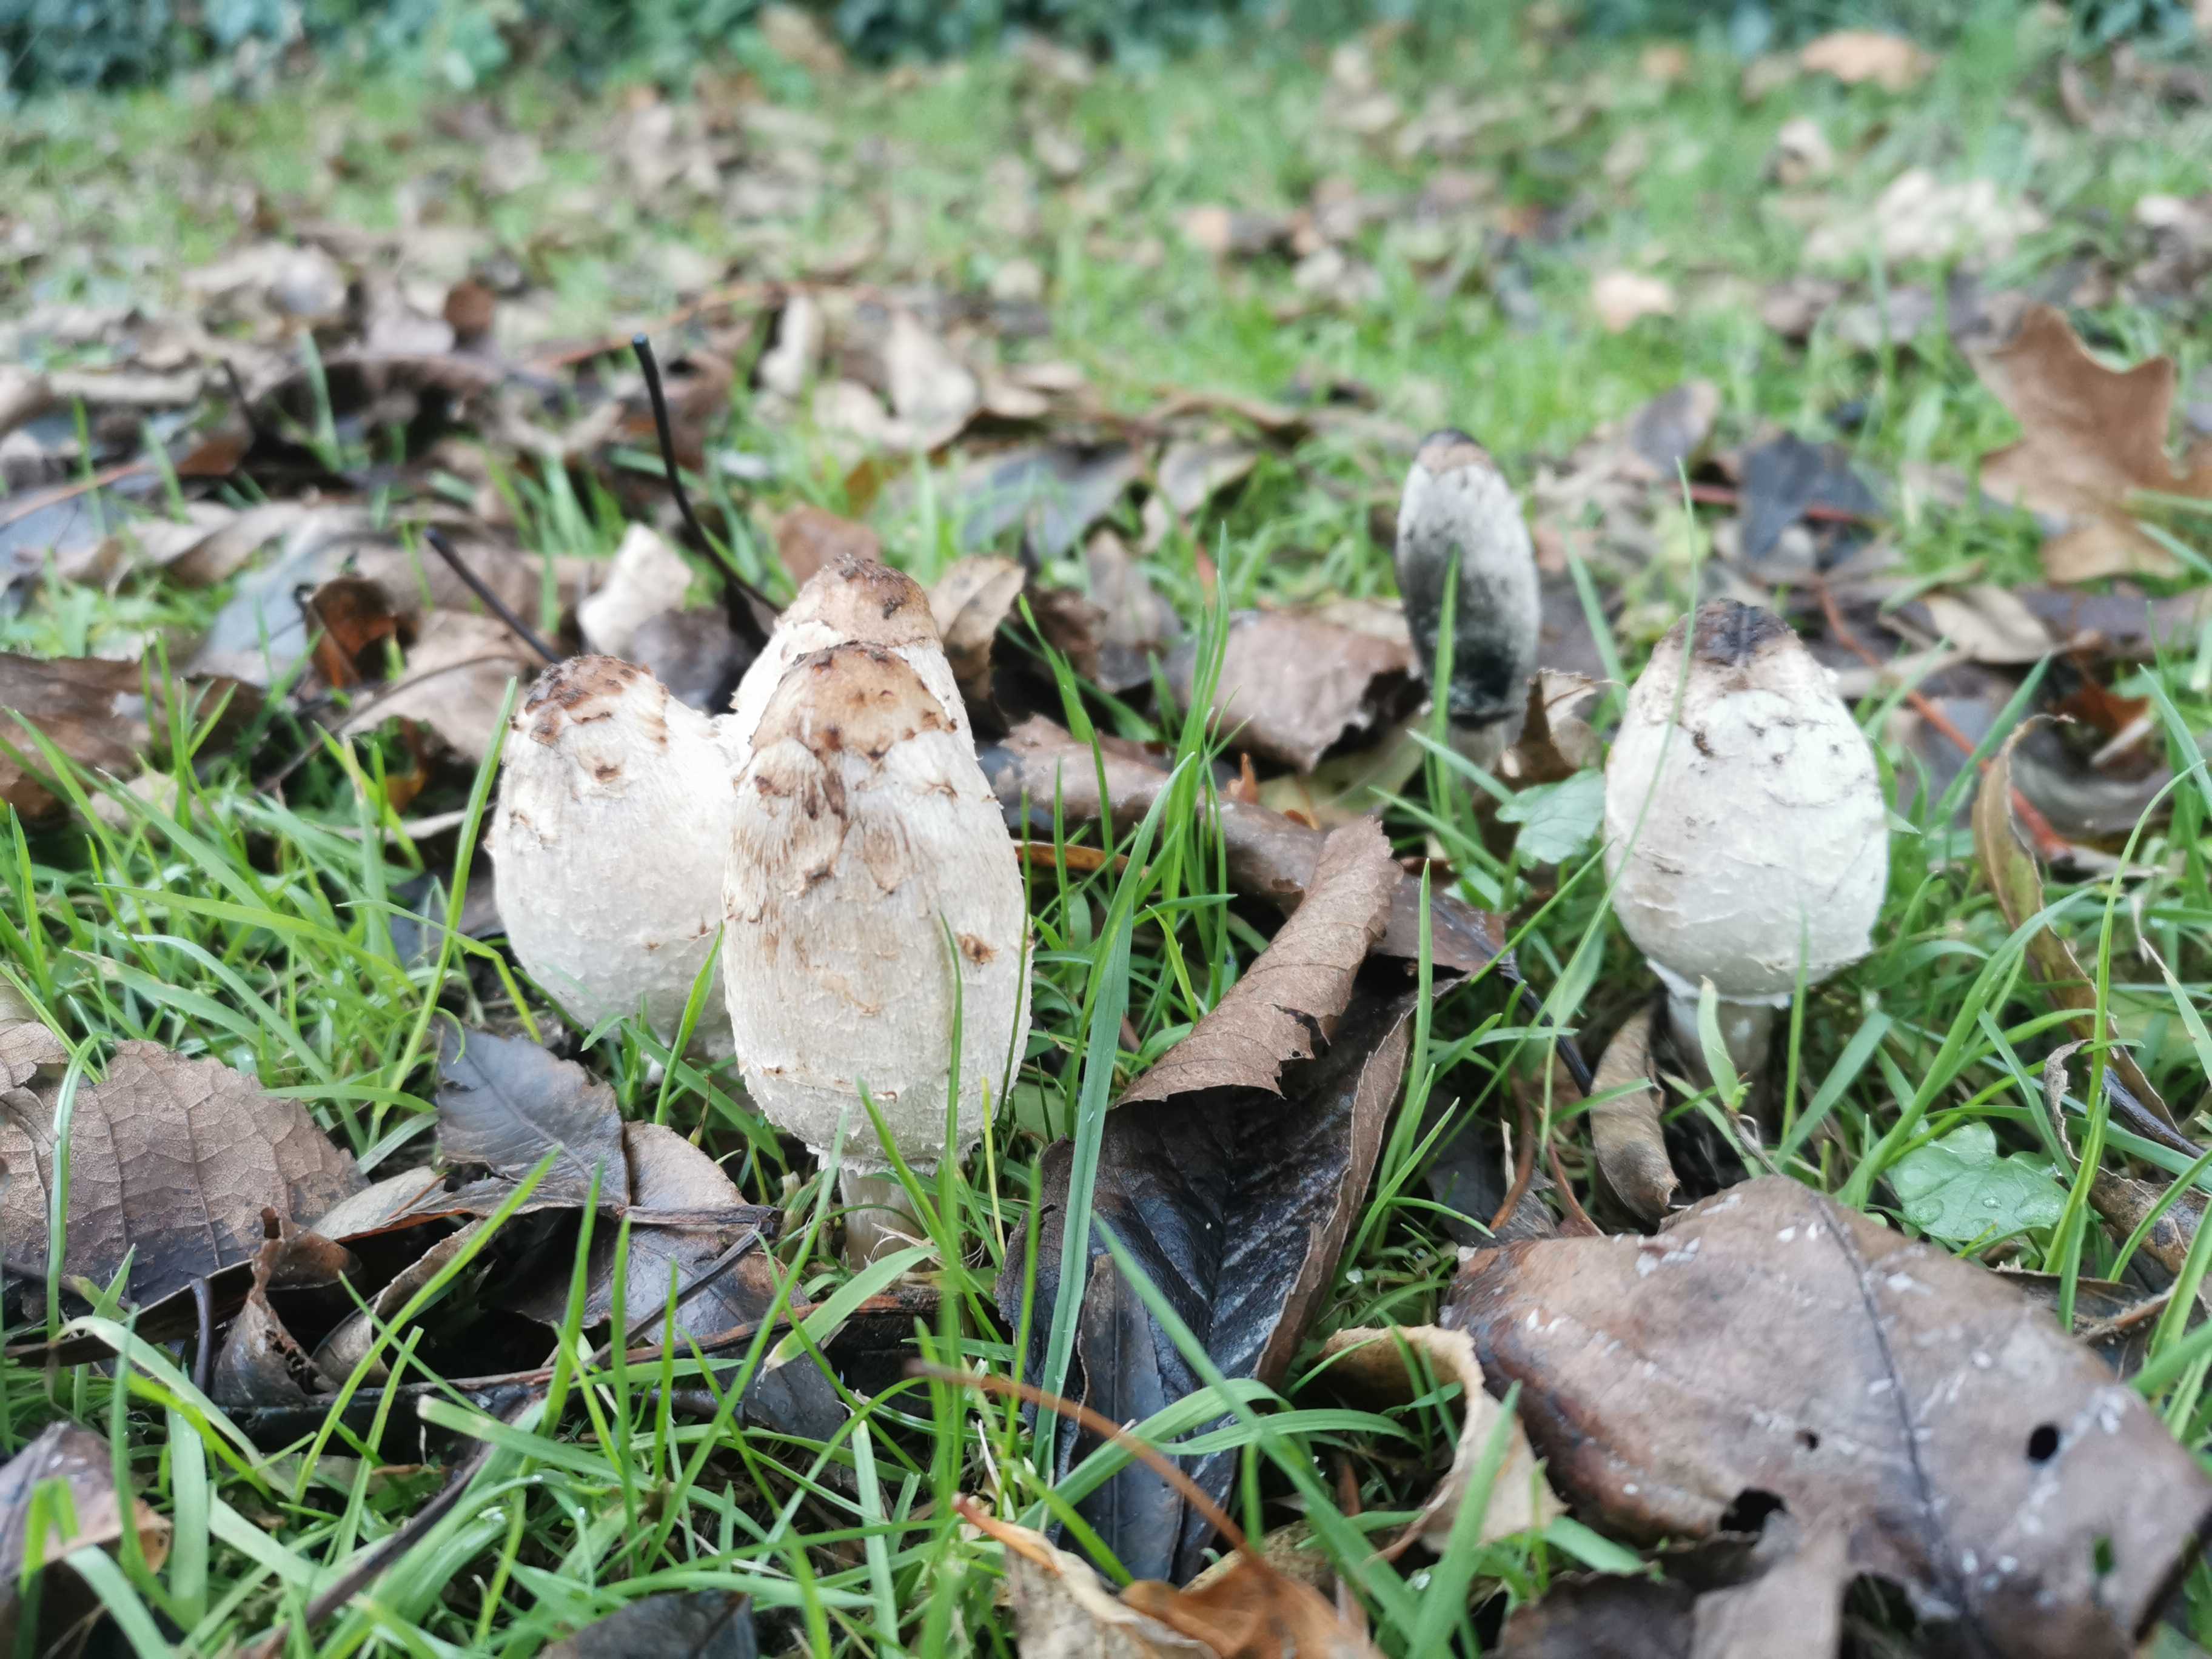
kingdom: Fungi
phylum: Basidiomycota
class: Agaricomycetes
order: Agaricales
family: Agaricaceae
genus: Coprinus
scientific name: Coprinus comatus
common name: stor parykhat
